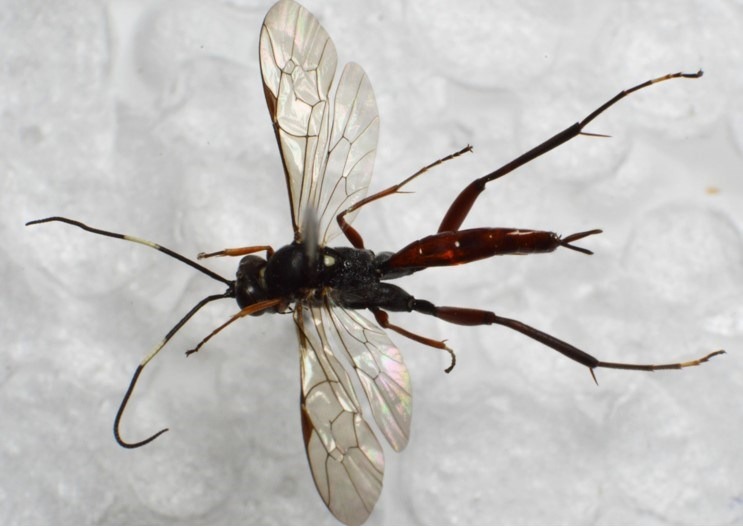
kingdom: Animalia
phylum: Arthropoda
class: Insecta
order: Hymenoptera
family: Ichneumonidae
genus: Exetastes
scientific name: Exetastes adpressorius
